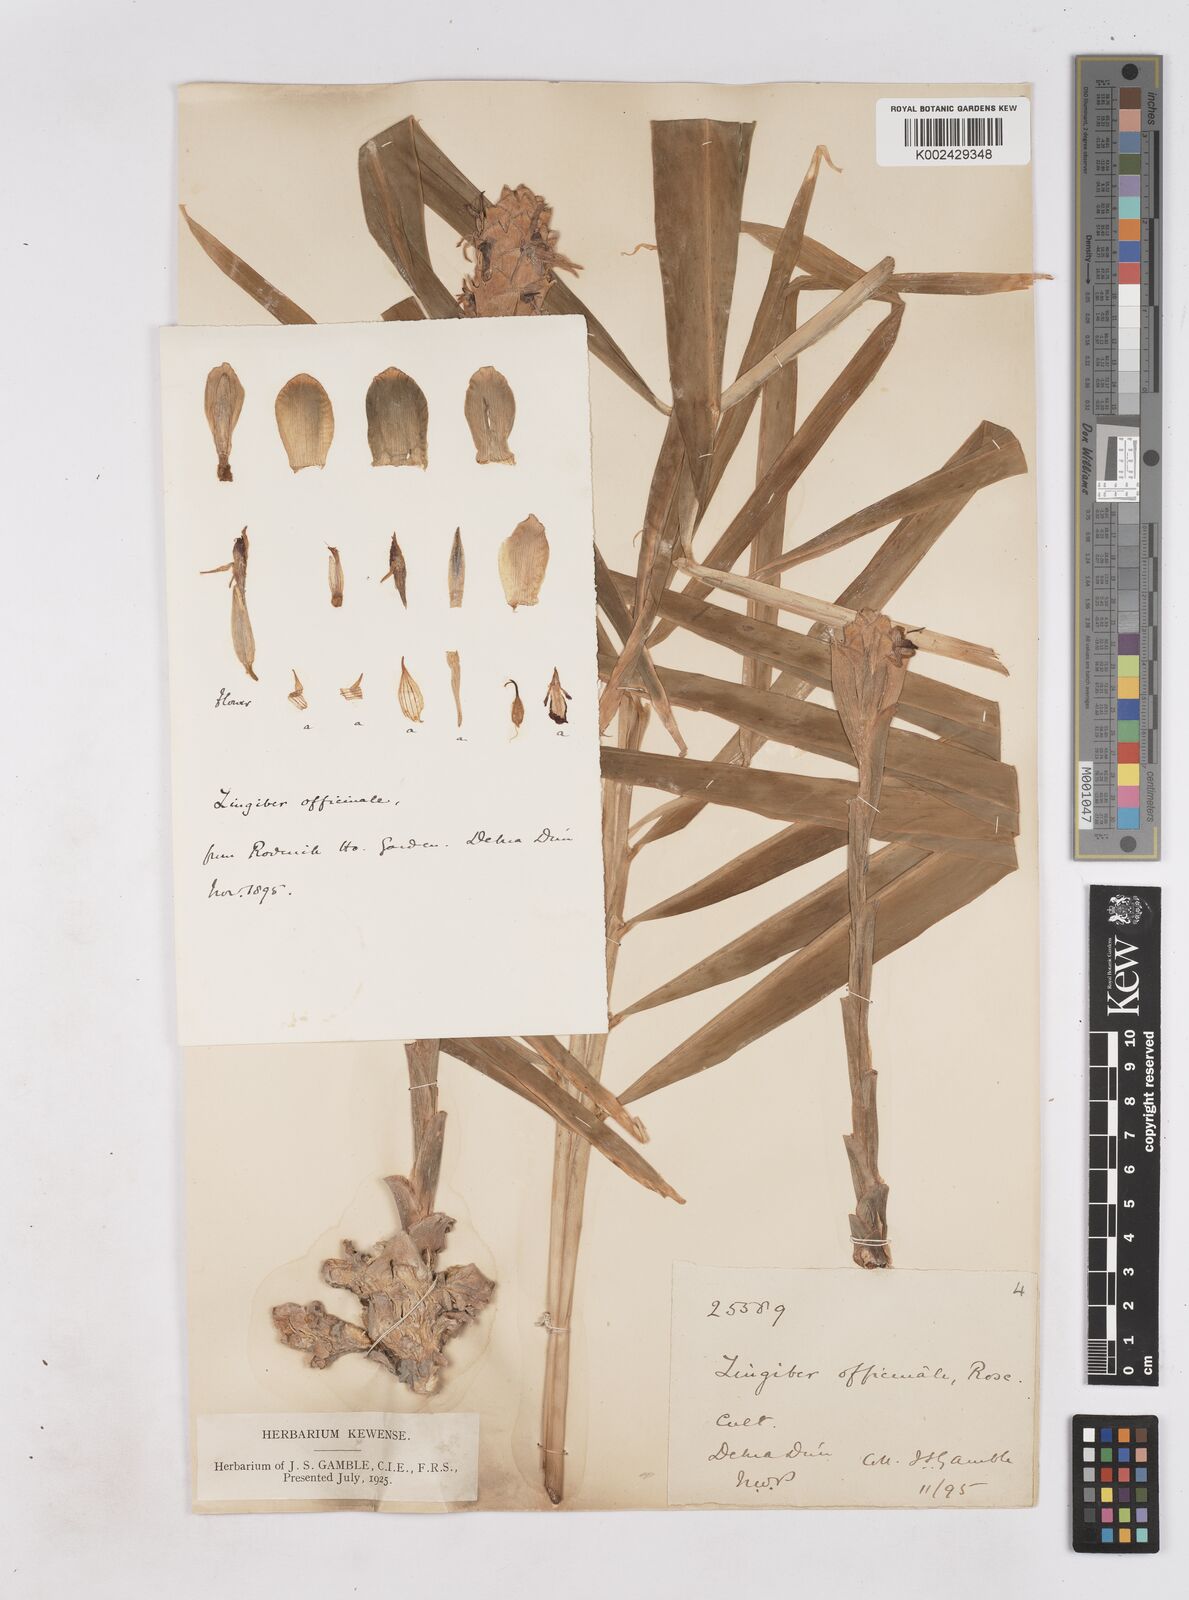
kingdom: Plantae
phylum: Tracheophyta
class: Liliopsida
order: Zingiberales
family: Zingiberaceae
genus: Zingiber
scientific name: Zingiber officinale
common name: Ginger
